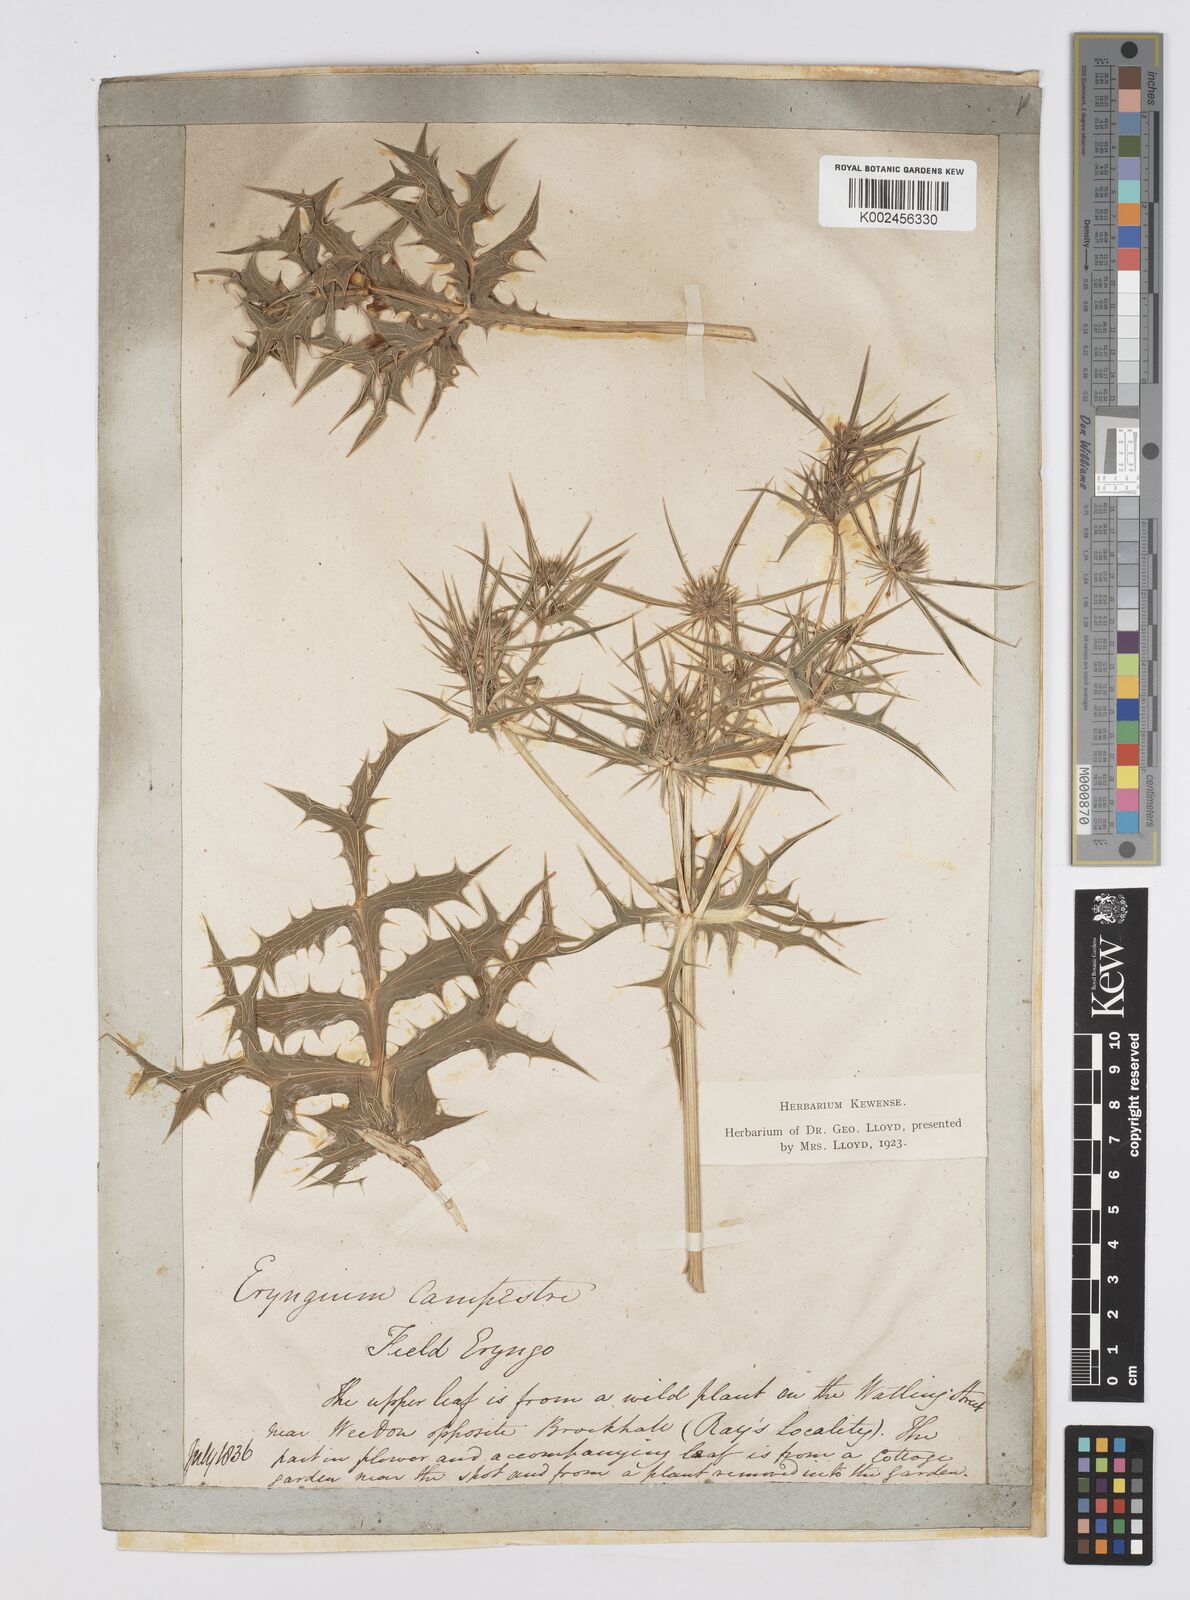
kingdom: Plantae
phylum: Tracheophyta
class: Magnoliopsida
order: Apiales
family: Apiaceae
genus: Eryngium
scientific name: Eryngium campestre
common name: Field eryngo
